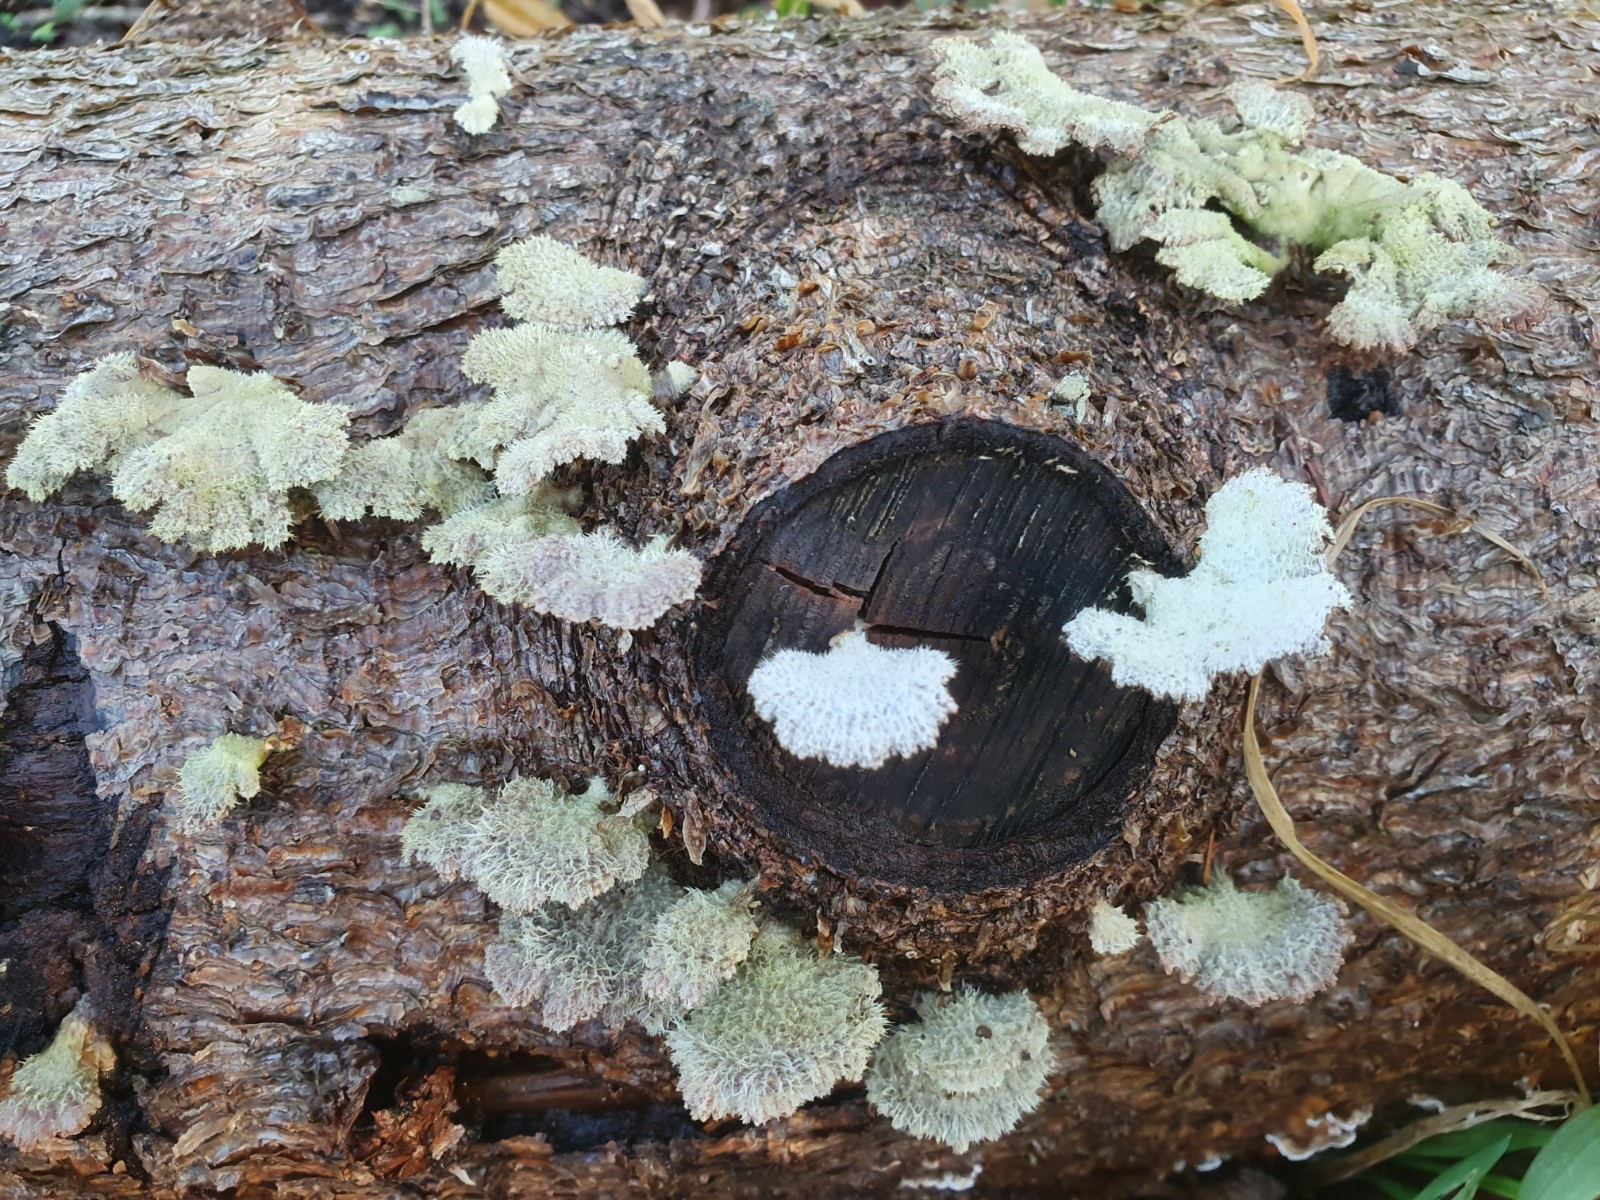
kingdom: Fungi
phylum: Basidiomycota
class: Agaricomycetes
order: Agaricales
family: Schizophyllaceae
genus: Schizophyllum
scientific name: Schizophyllum commune
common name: kløvblad
